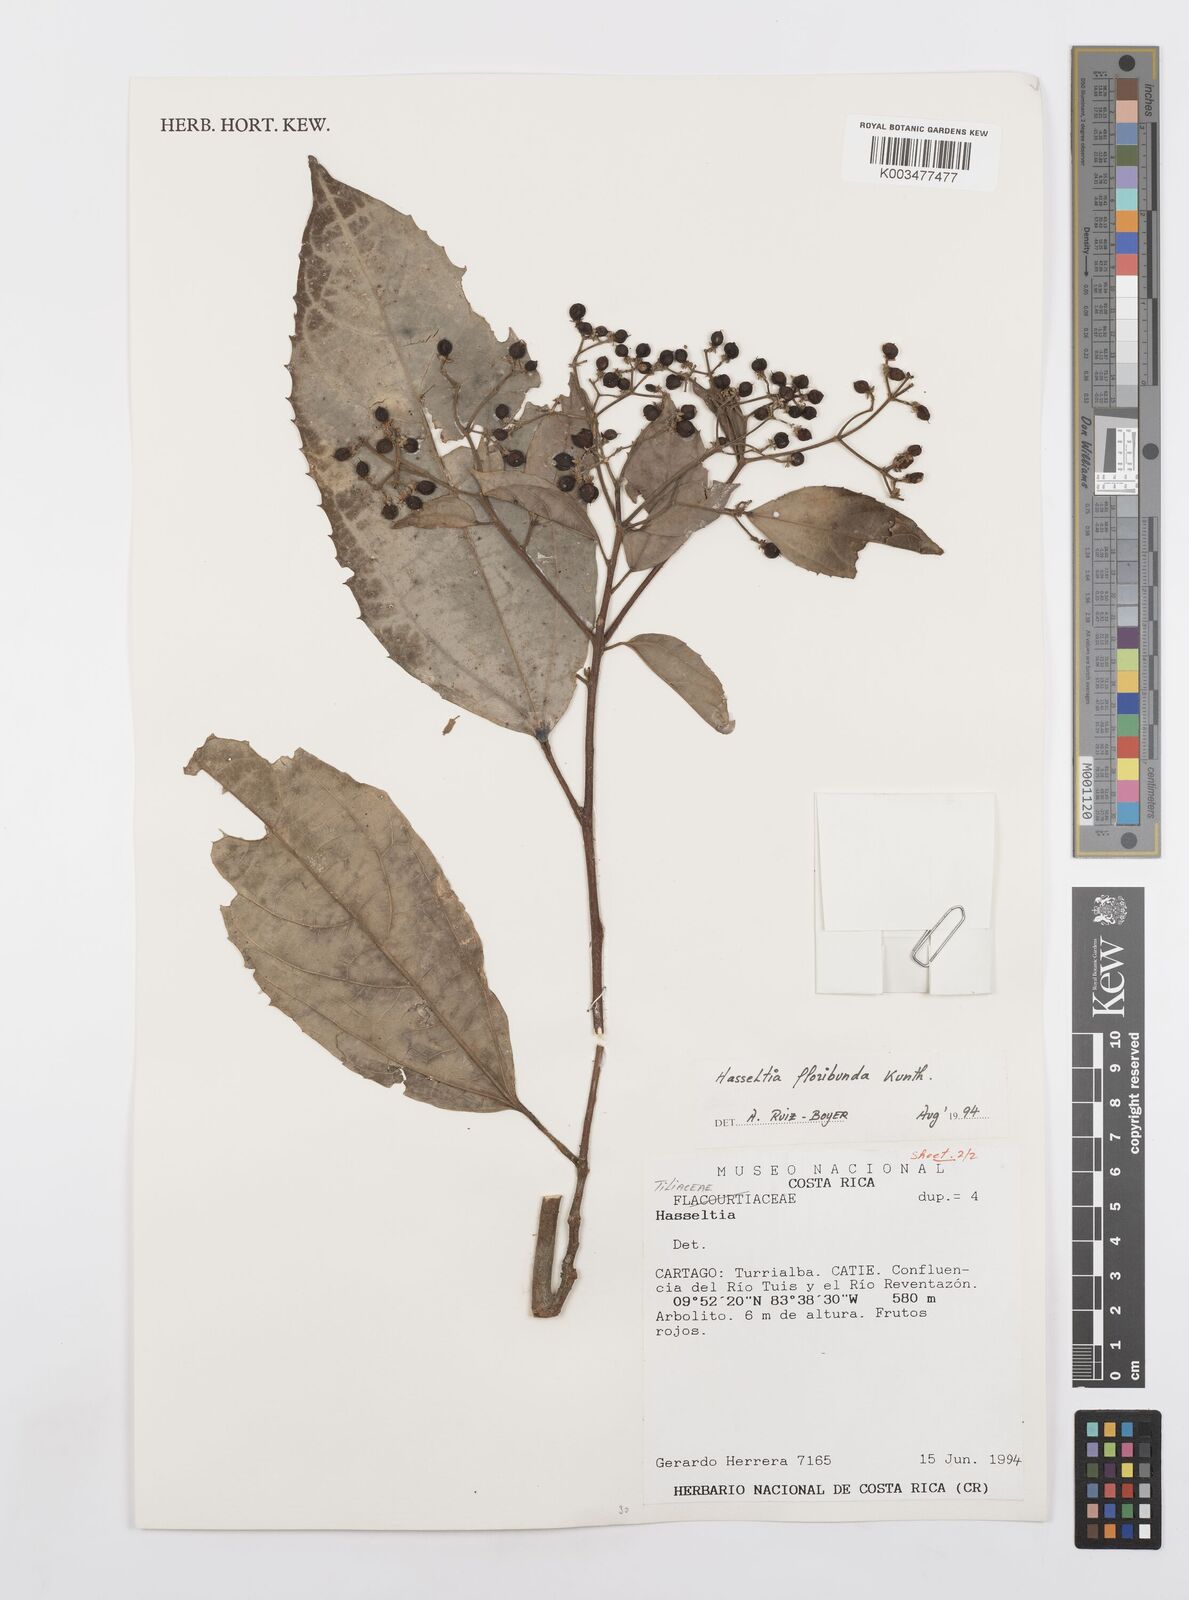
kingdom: Plantae
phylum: Tracheophyta
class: Magnoliopsida
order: Malpighiales
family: Salicaceae
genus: Hasseltia
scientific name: Hasseltia floribunda
